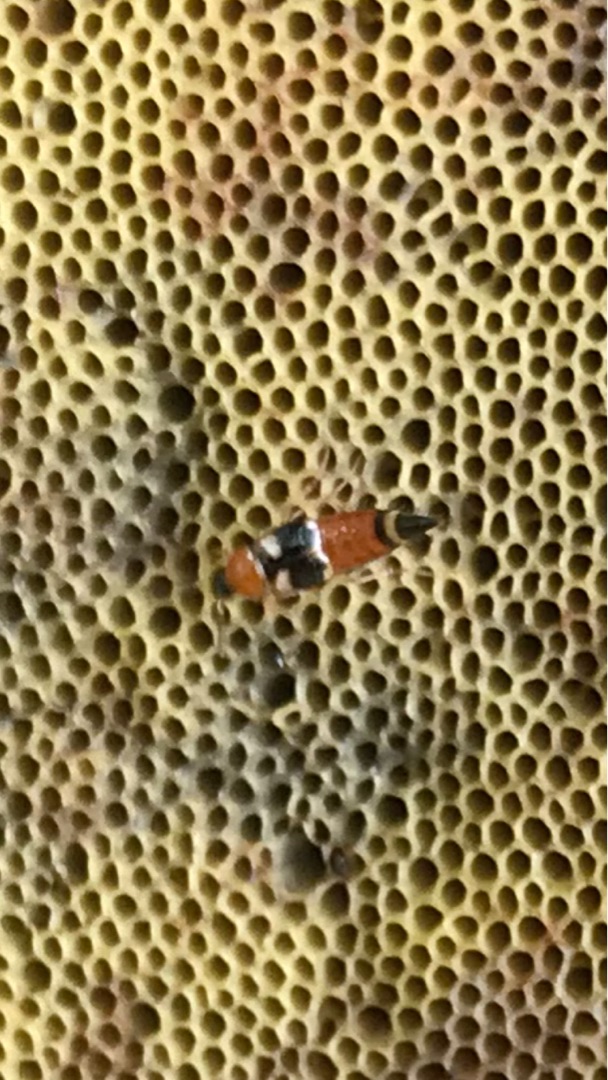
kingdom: Animalia
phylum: Arthropoda
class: Insecta
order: Coleoptera
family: Staphylinidae
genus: Bobitobus
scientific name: Bobitobus lunulatus
